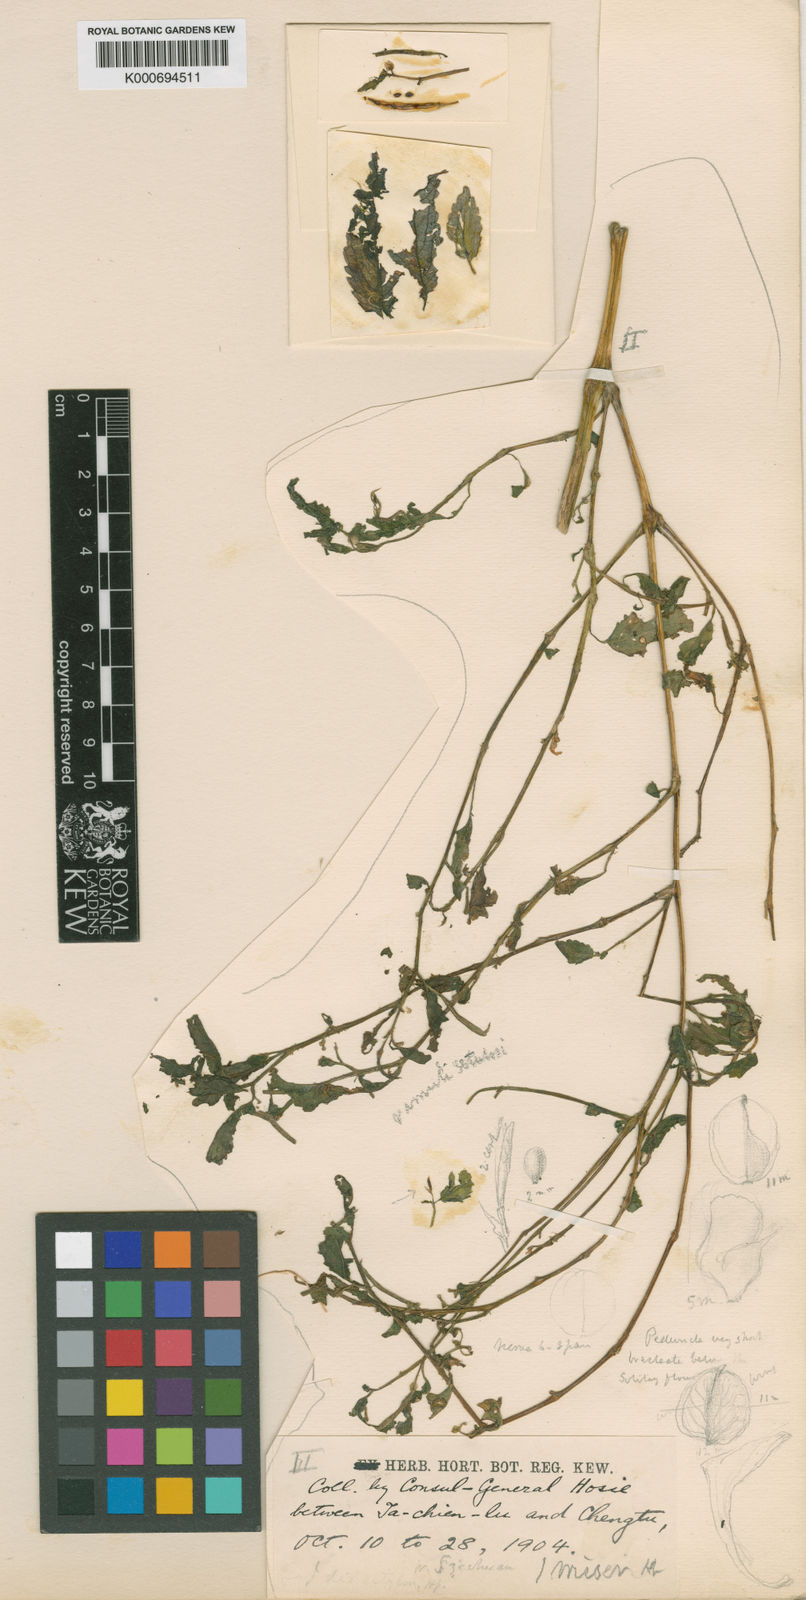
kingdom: Plantae
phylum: Tracheophyta
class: Magnoliopsida
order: Ericales
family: Balsaminaceae
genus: Impatiens
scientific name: Impatiens
